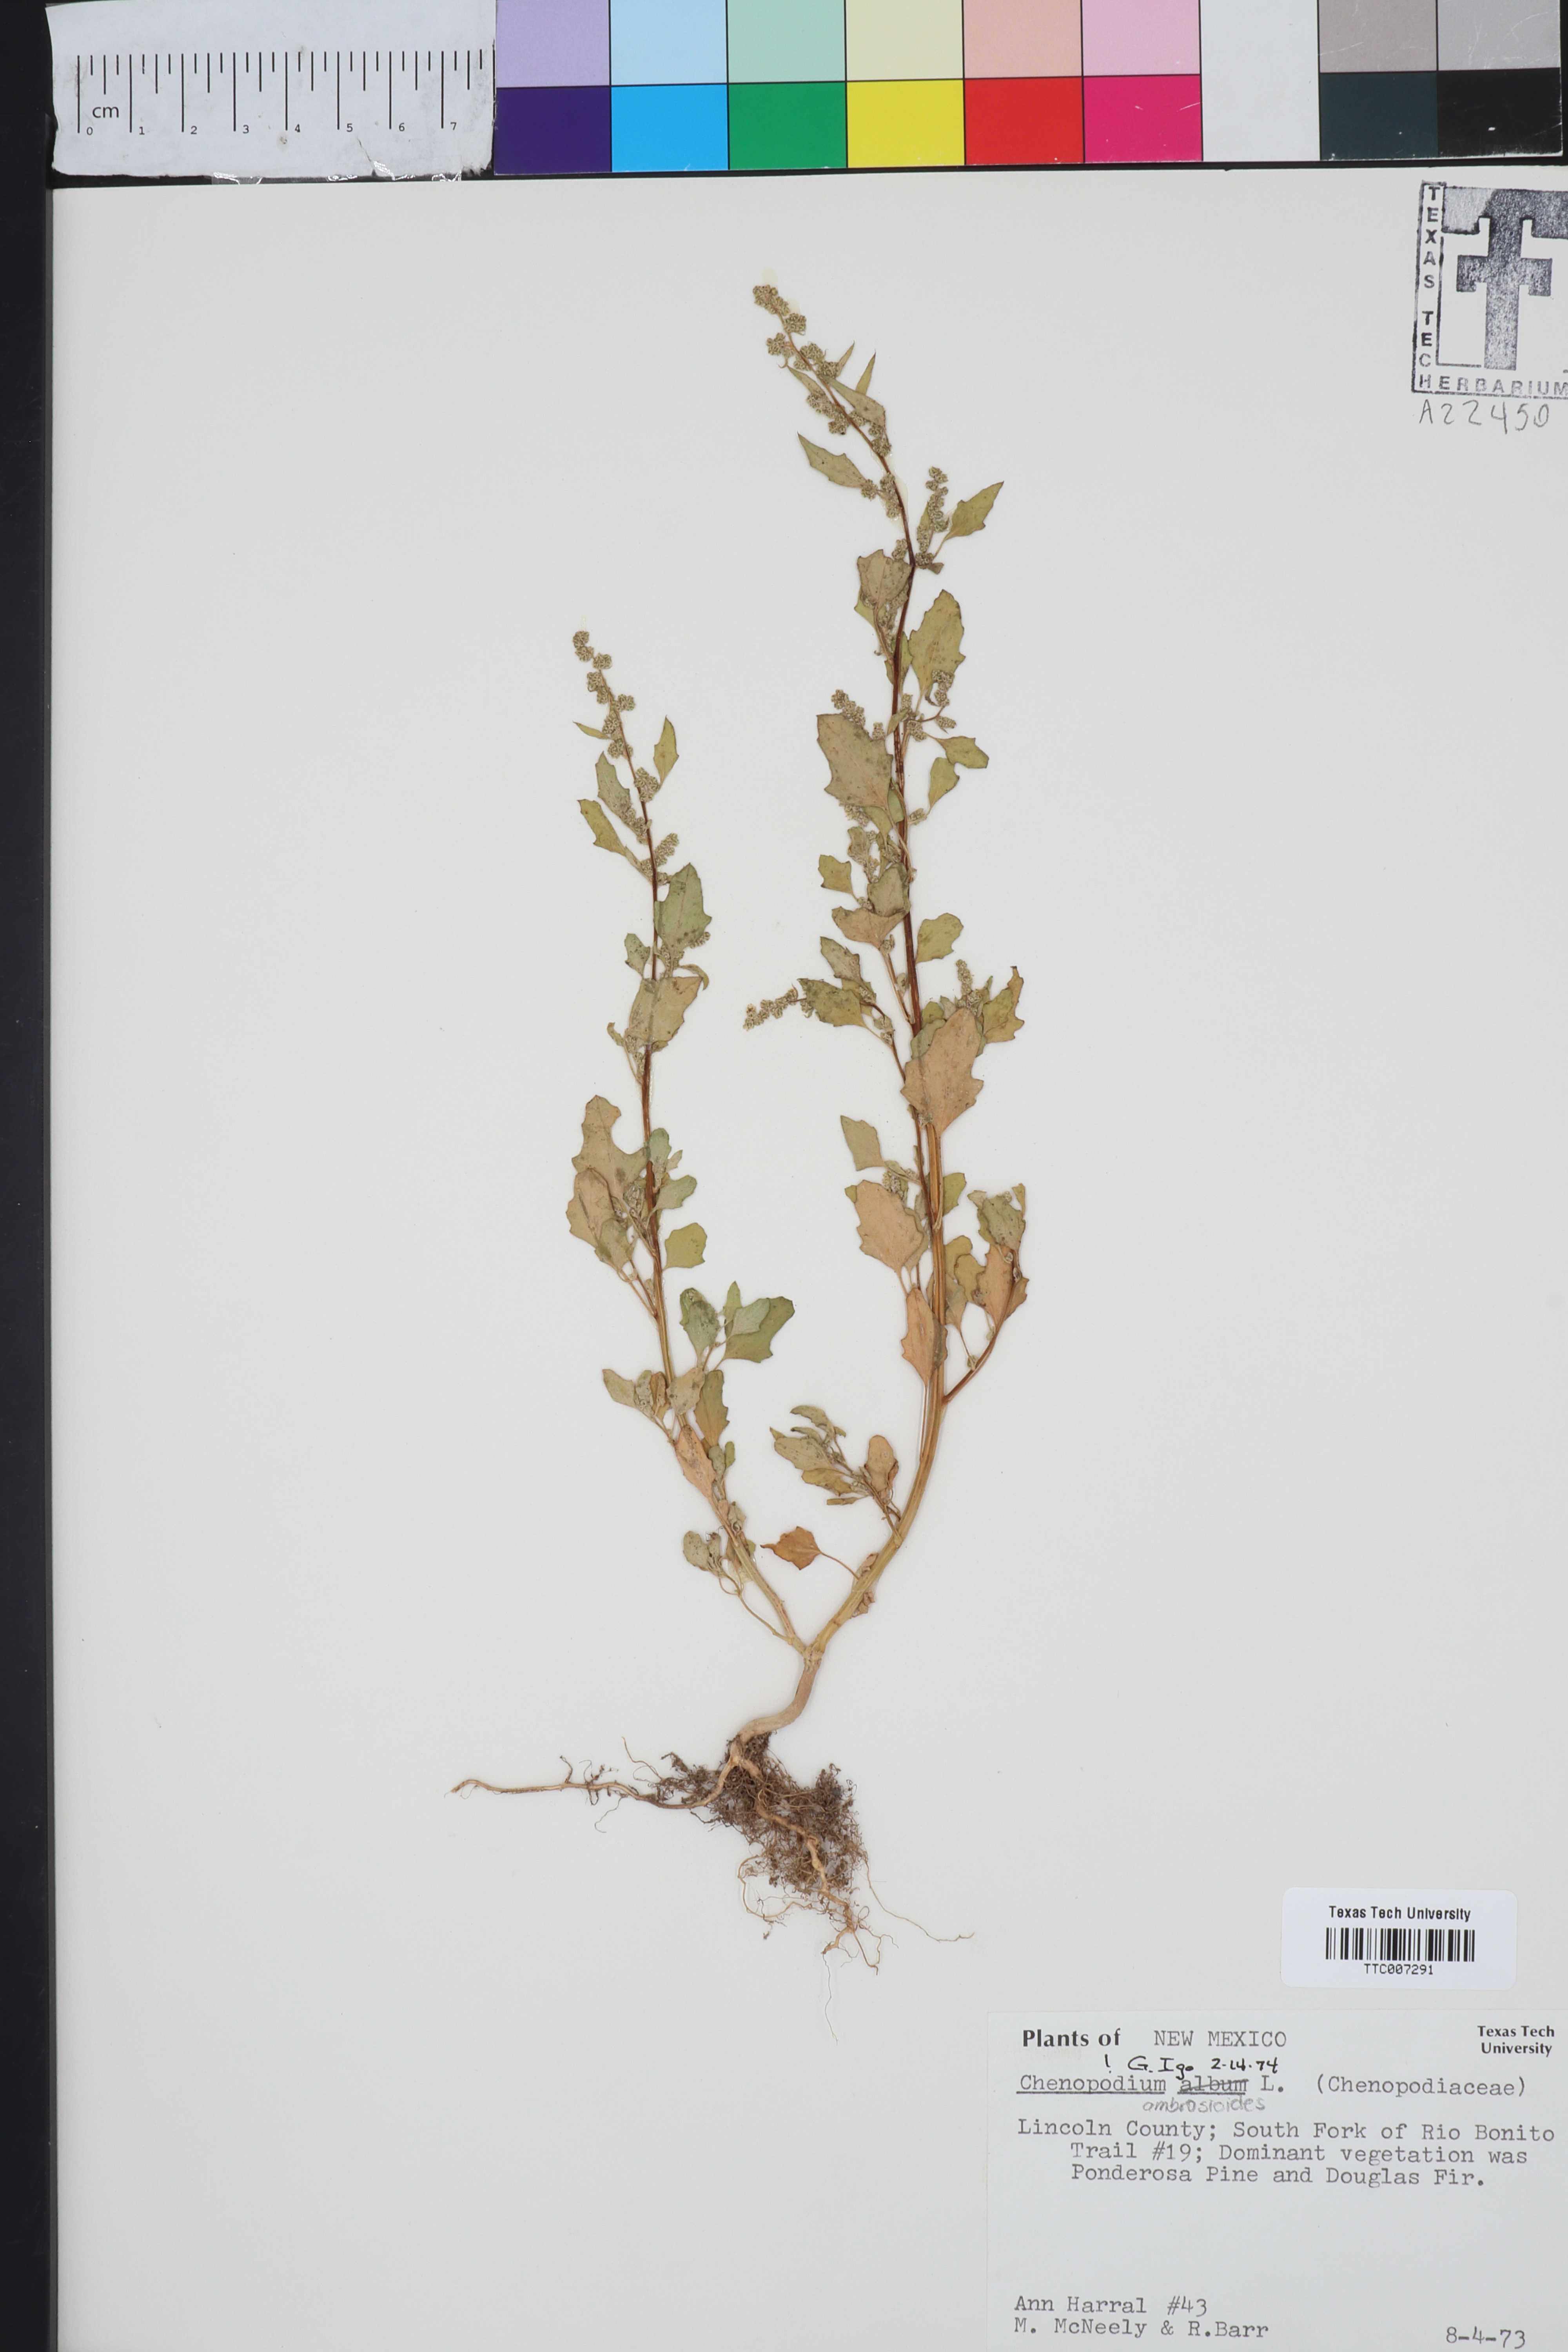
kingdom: Plantae
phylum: Tracheophyta
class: Magnoliopsida
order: Caryophyllales
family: Amaranthaceae
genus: Chenopodium
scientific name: Chenopodium album
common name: Fat-hen
